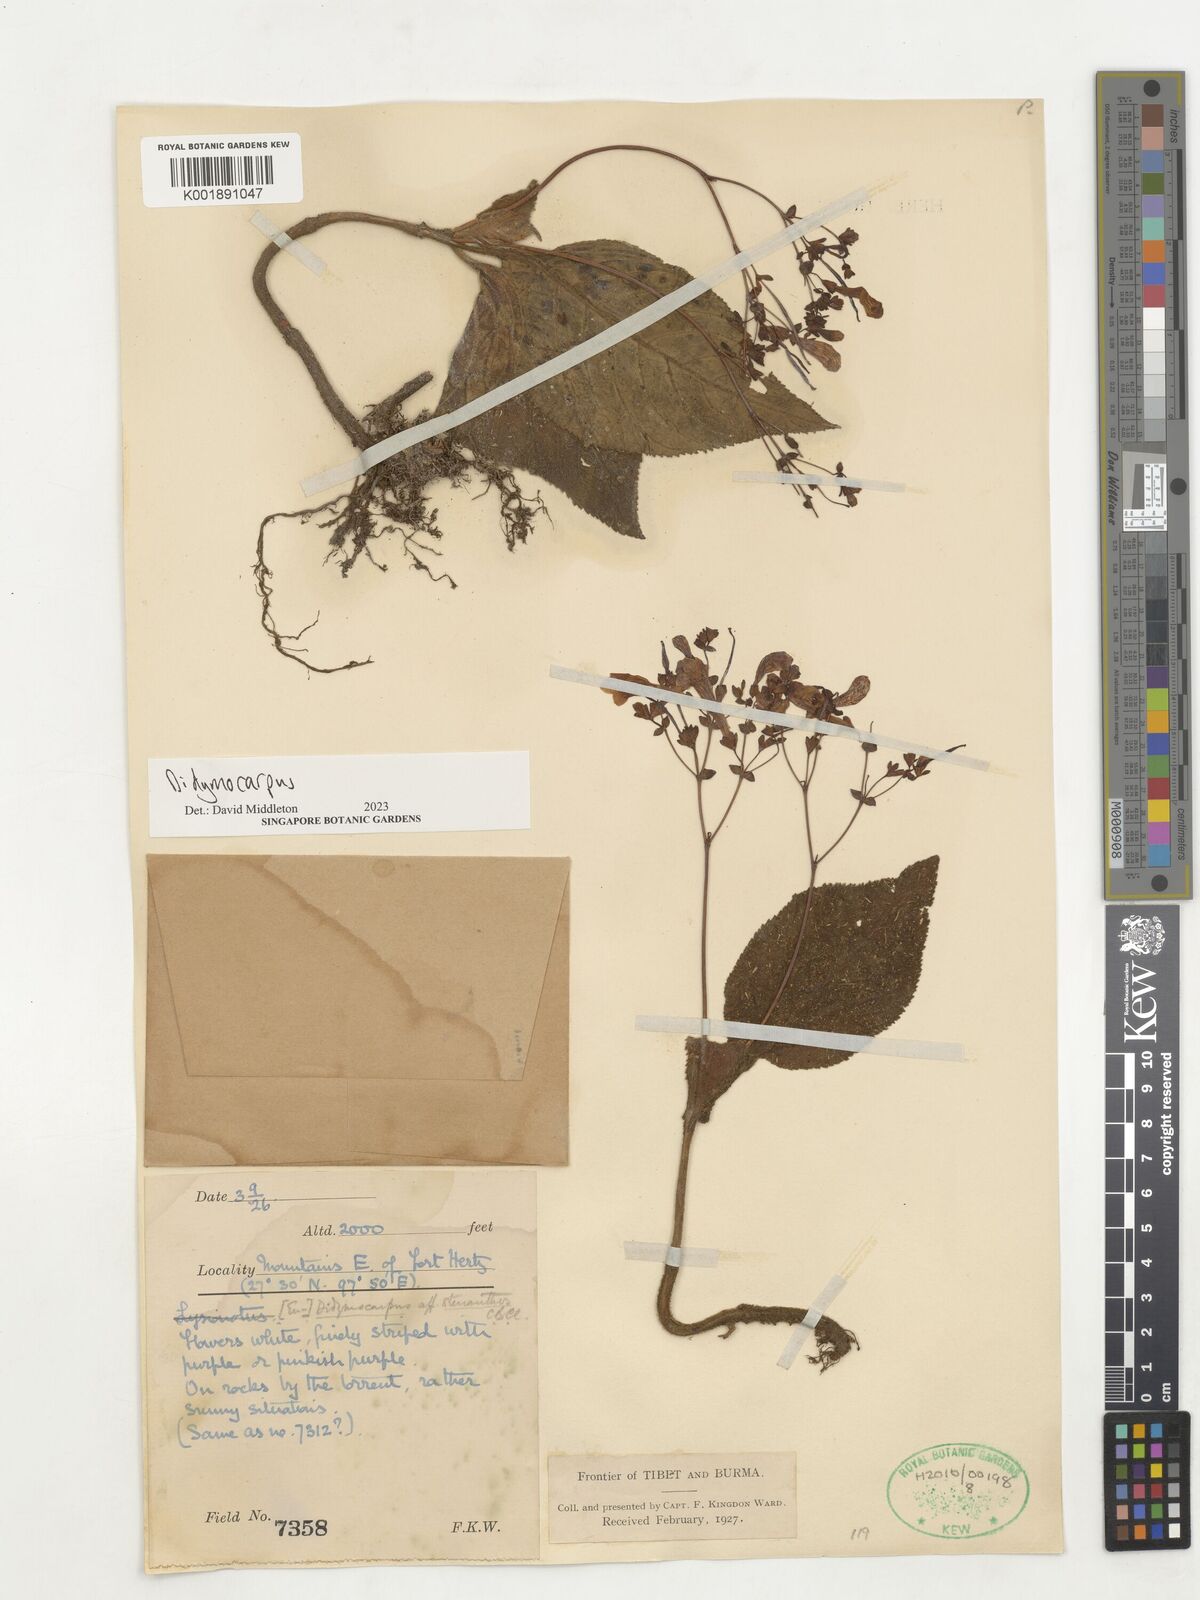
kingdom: Plantae
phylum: Tracheophyta
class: Magnoliopsida
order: Lamiales
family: Gesneriaceae
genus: Didymocarpus
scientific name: Didymocarpus
